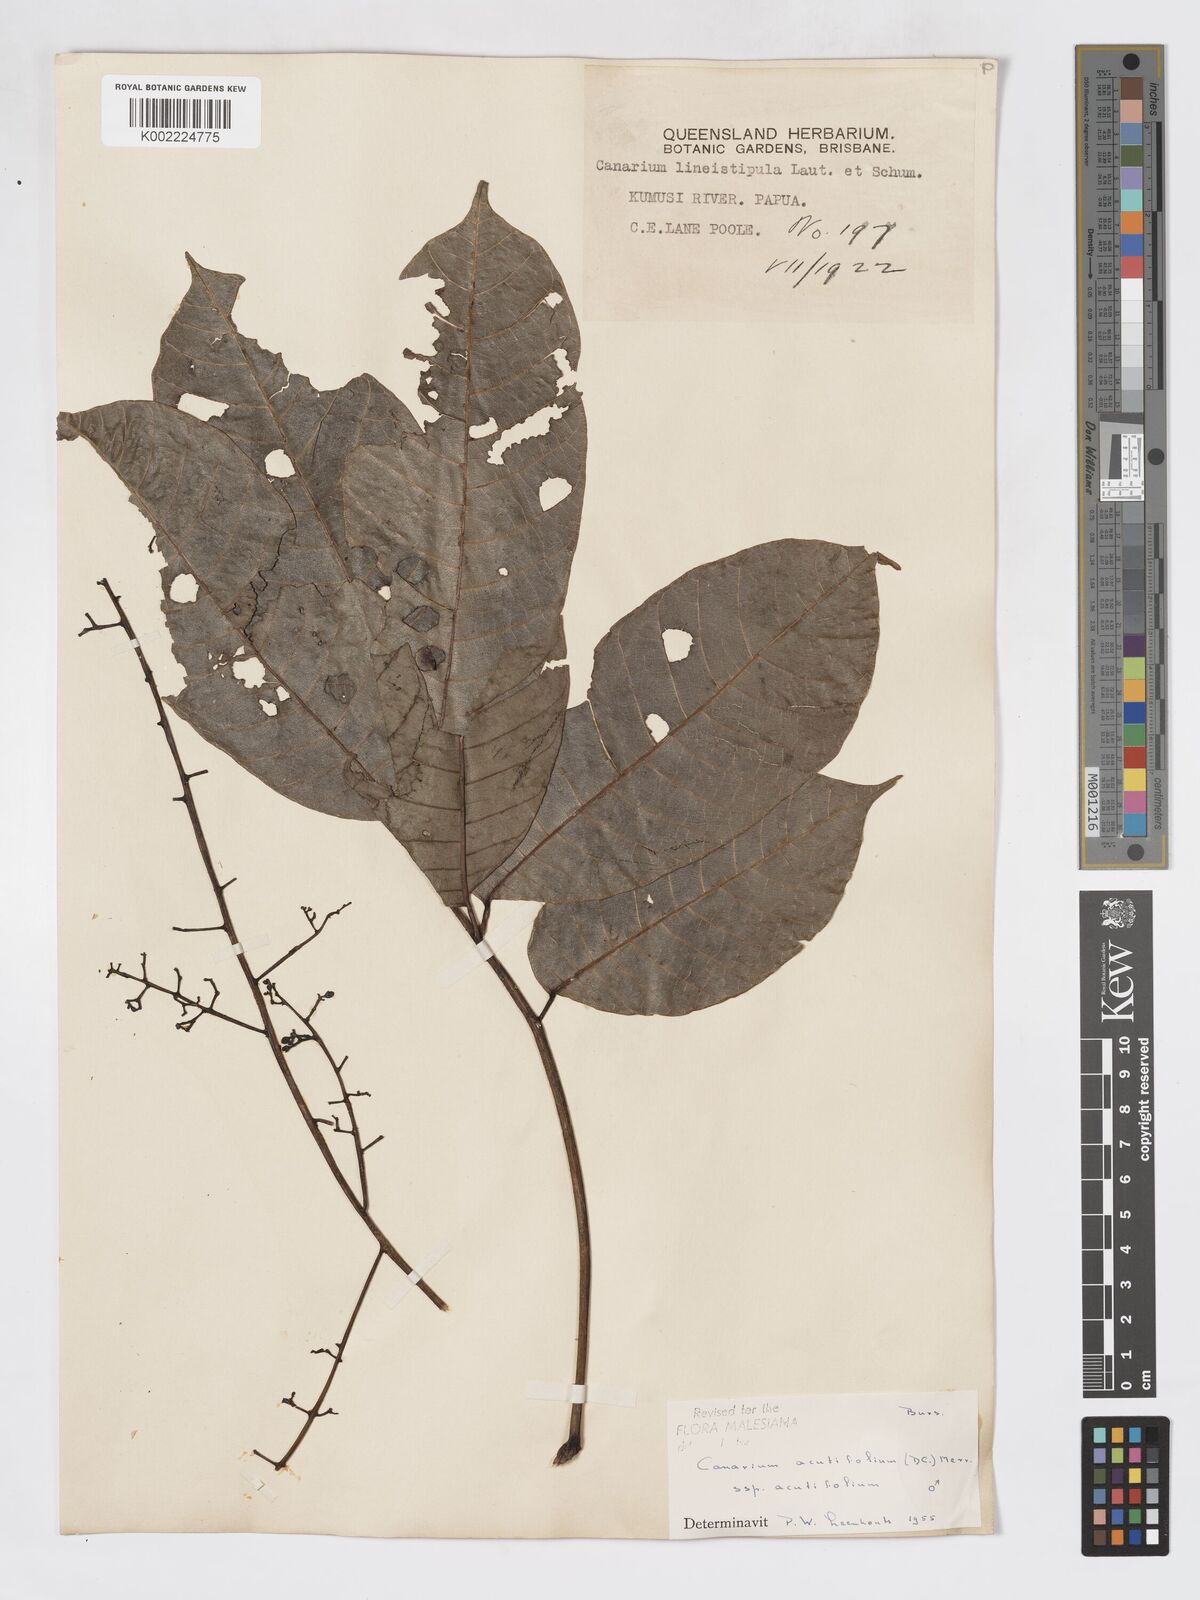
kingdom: Plantae
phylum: Tracheophyta
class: Magnoliopsida
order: Sapindales
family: Burseraceae
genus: Canarium
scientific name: Canarium acutifolium
